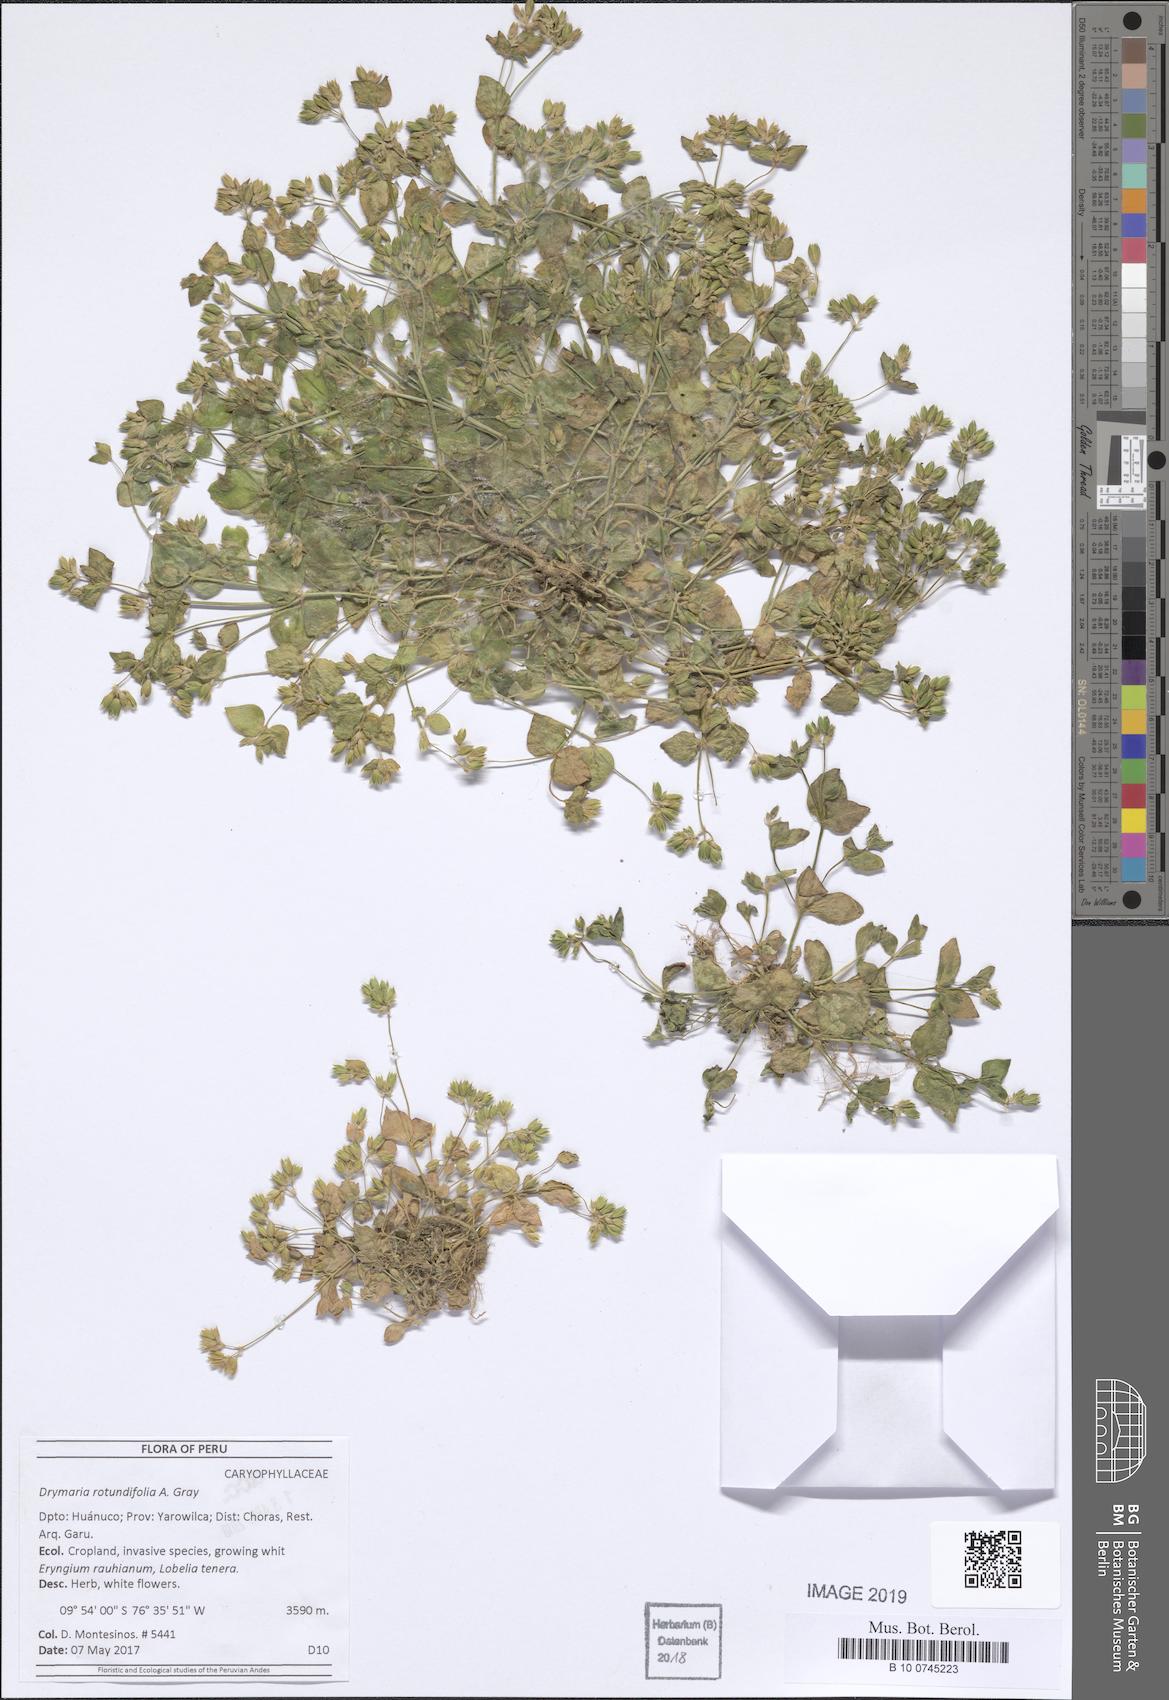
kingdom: Plantae
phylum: Tracheophyta
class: Magnoliopsida
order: Caryophyllales
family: Caryophyllaceae
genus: Drymaria
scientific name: Drymaria rotundifolia
